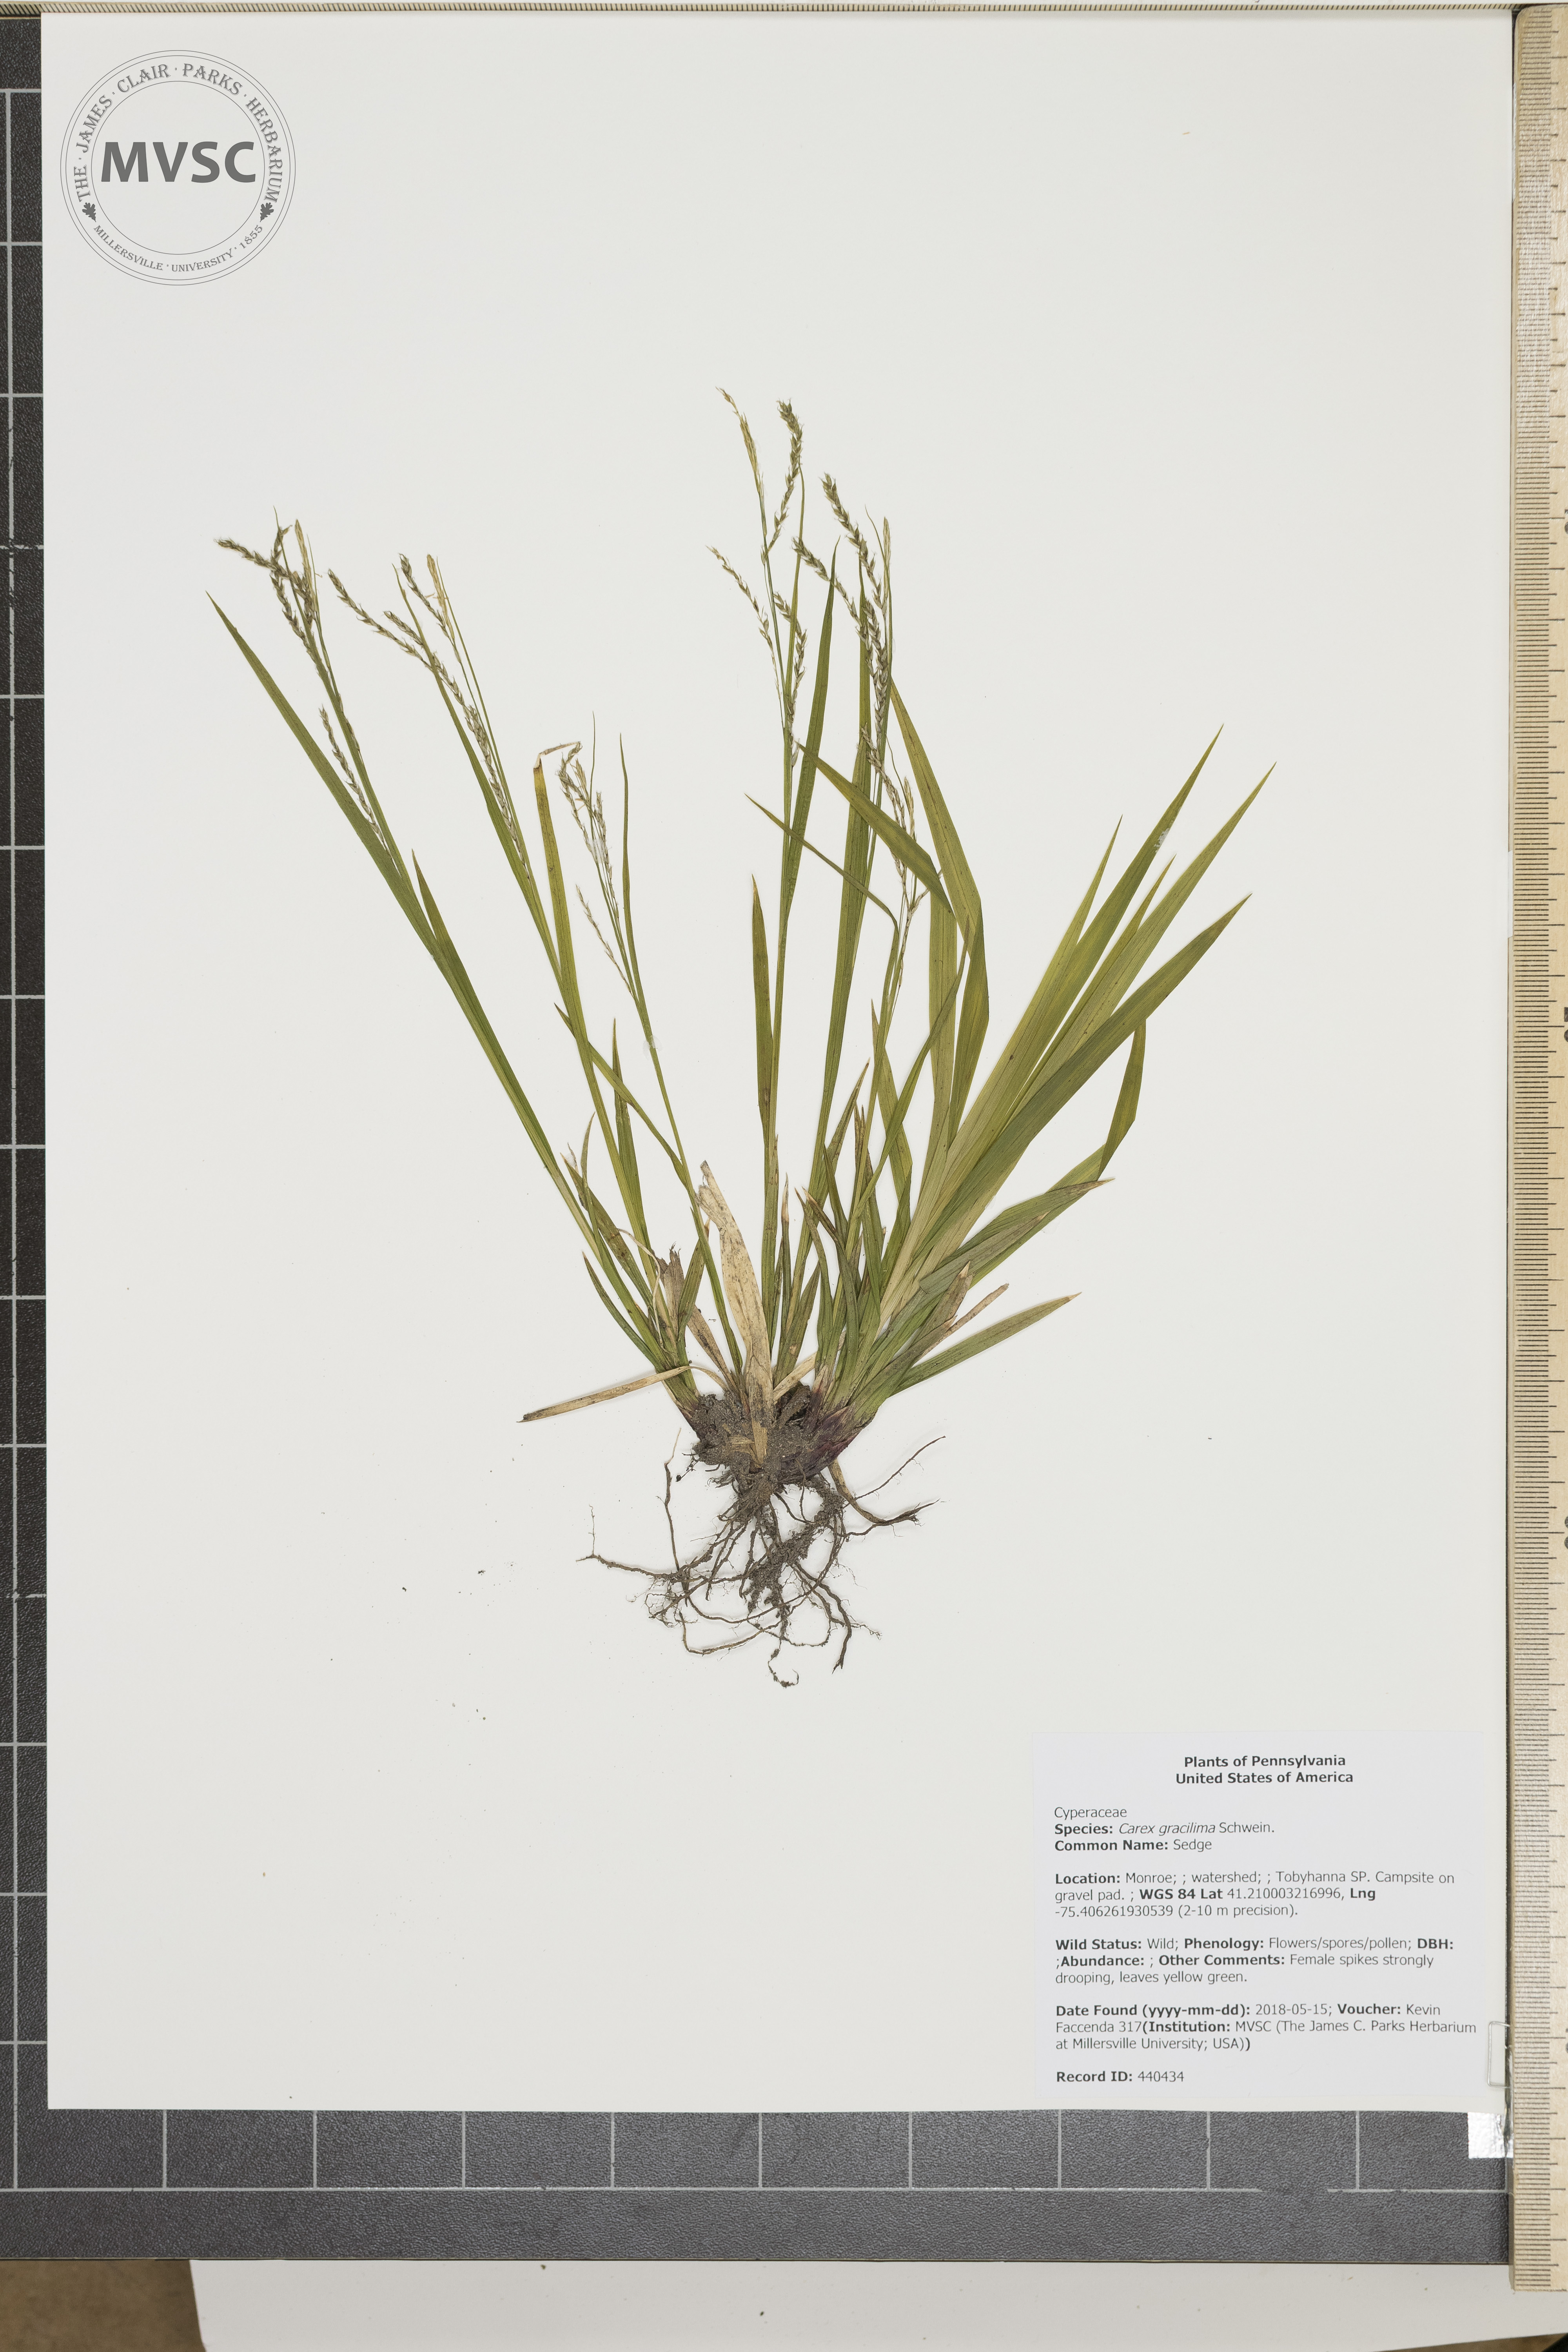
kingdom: Plantae
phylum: Tracheophyta
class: Liliopsida
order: Poales
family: Cyperaceae
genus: Carex
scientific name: Carex gracillima
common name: Sedge
